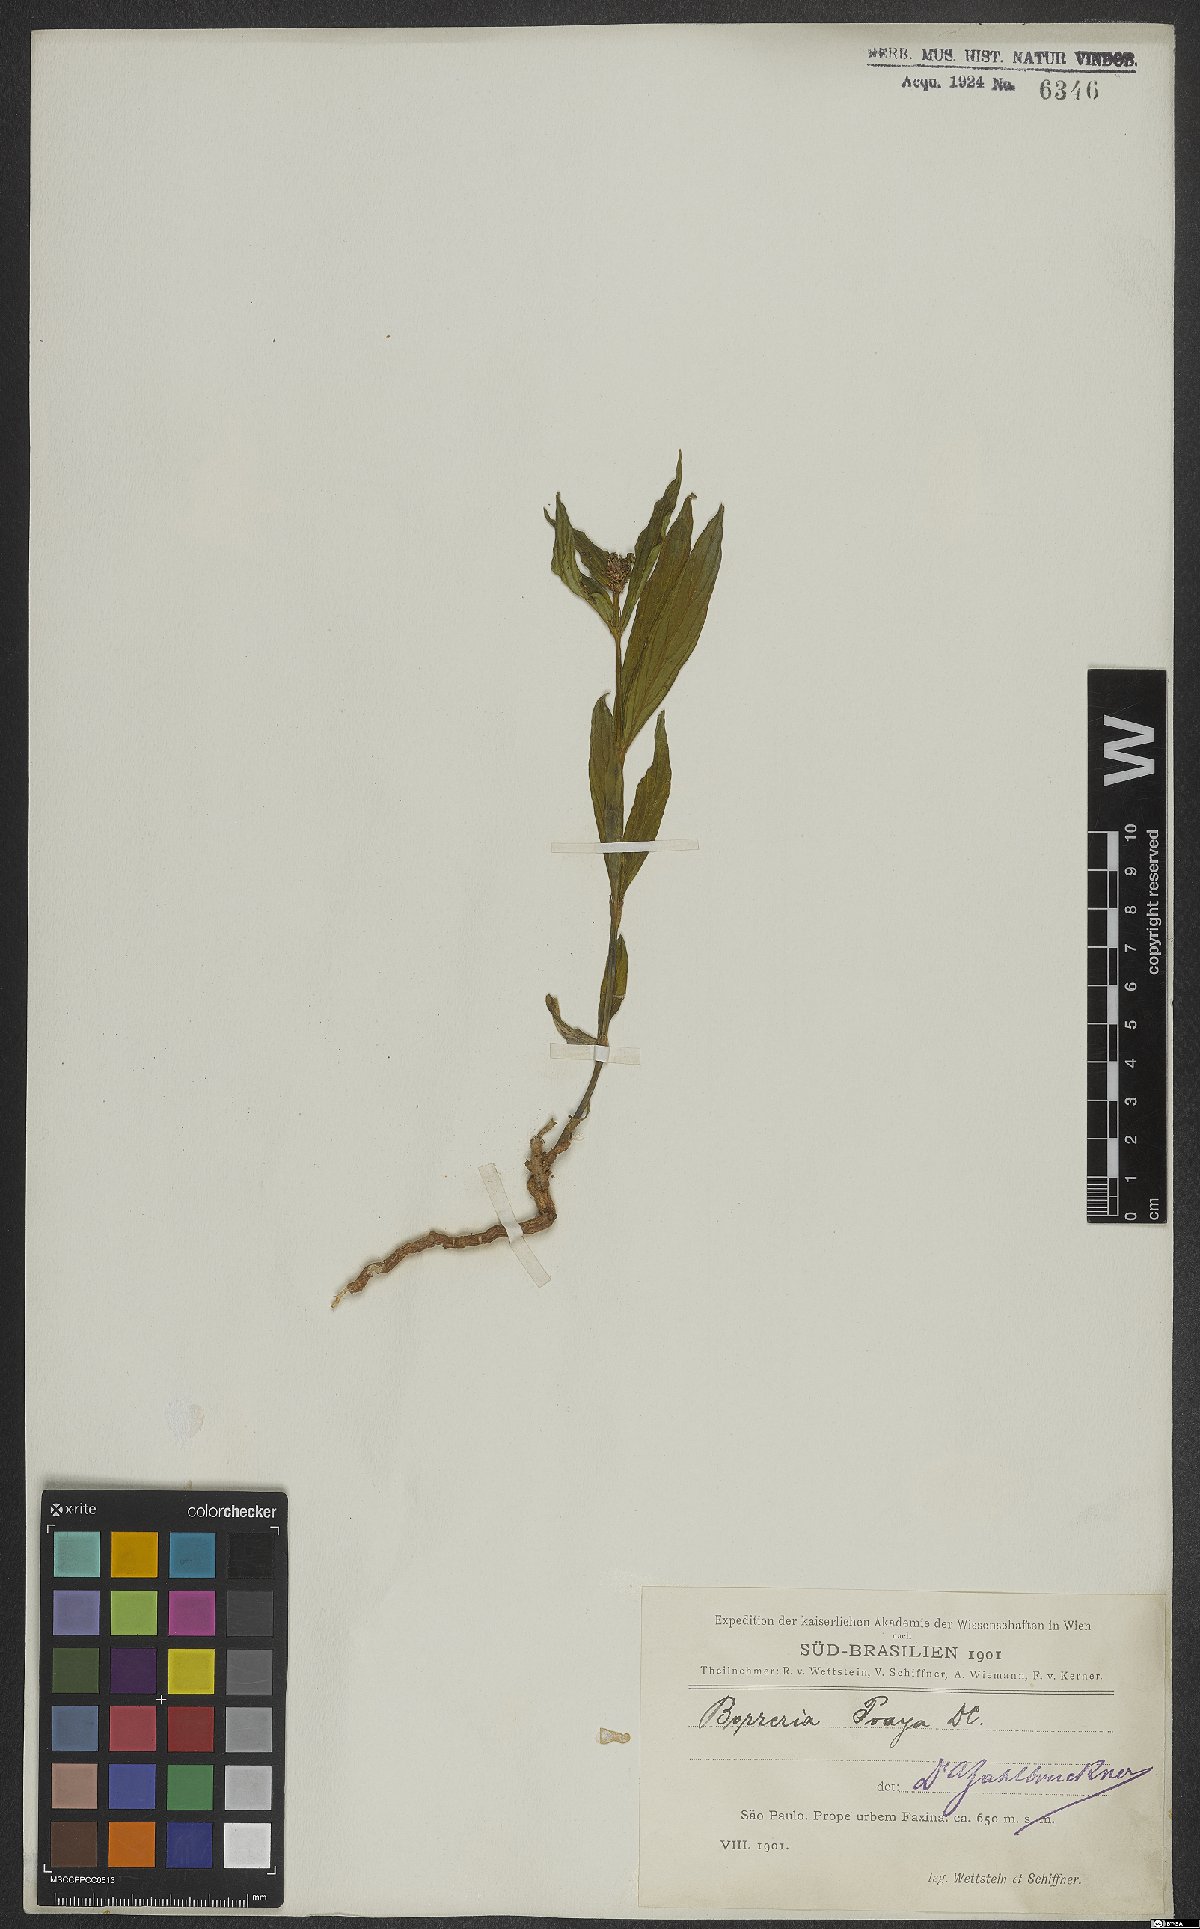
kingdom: Plantae
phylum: Tracheophyta
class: Magnoliopsida
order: Gentianales
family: Rubiaceae
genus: Spermacoce
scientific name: Spermacoce poaya
